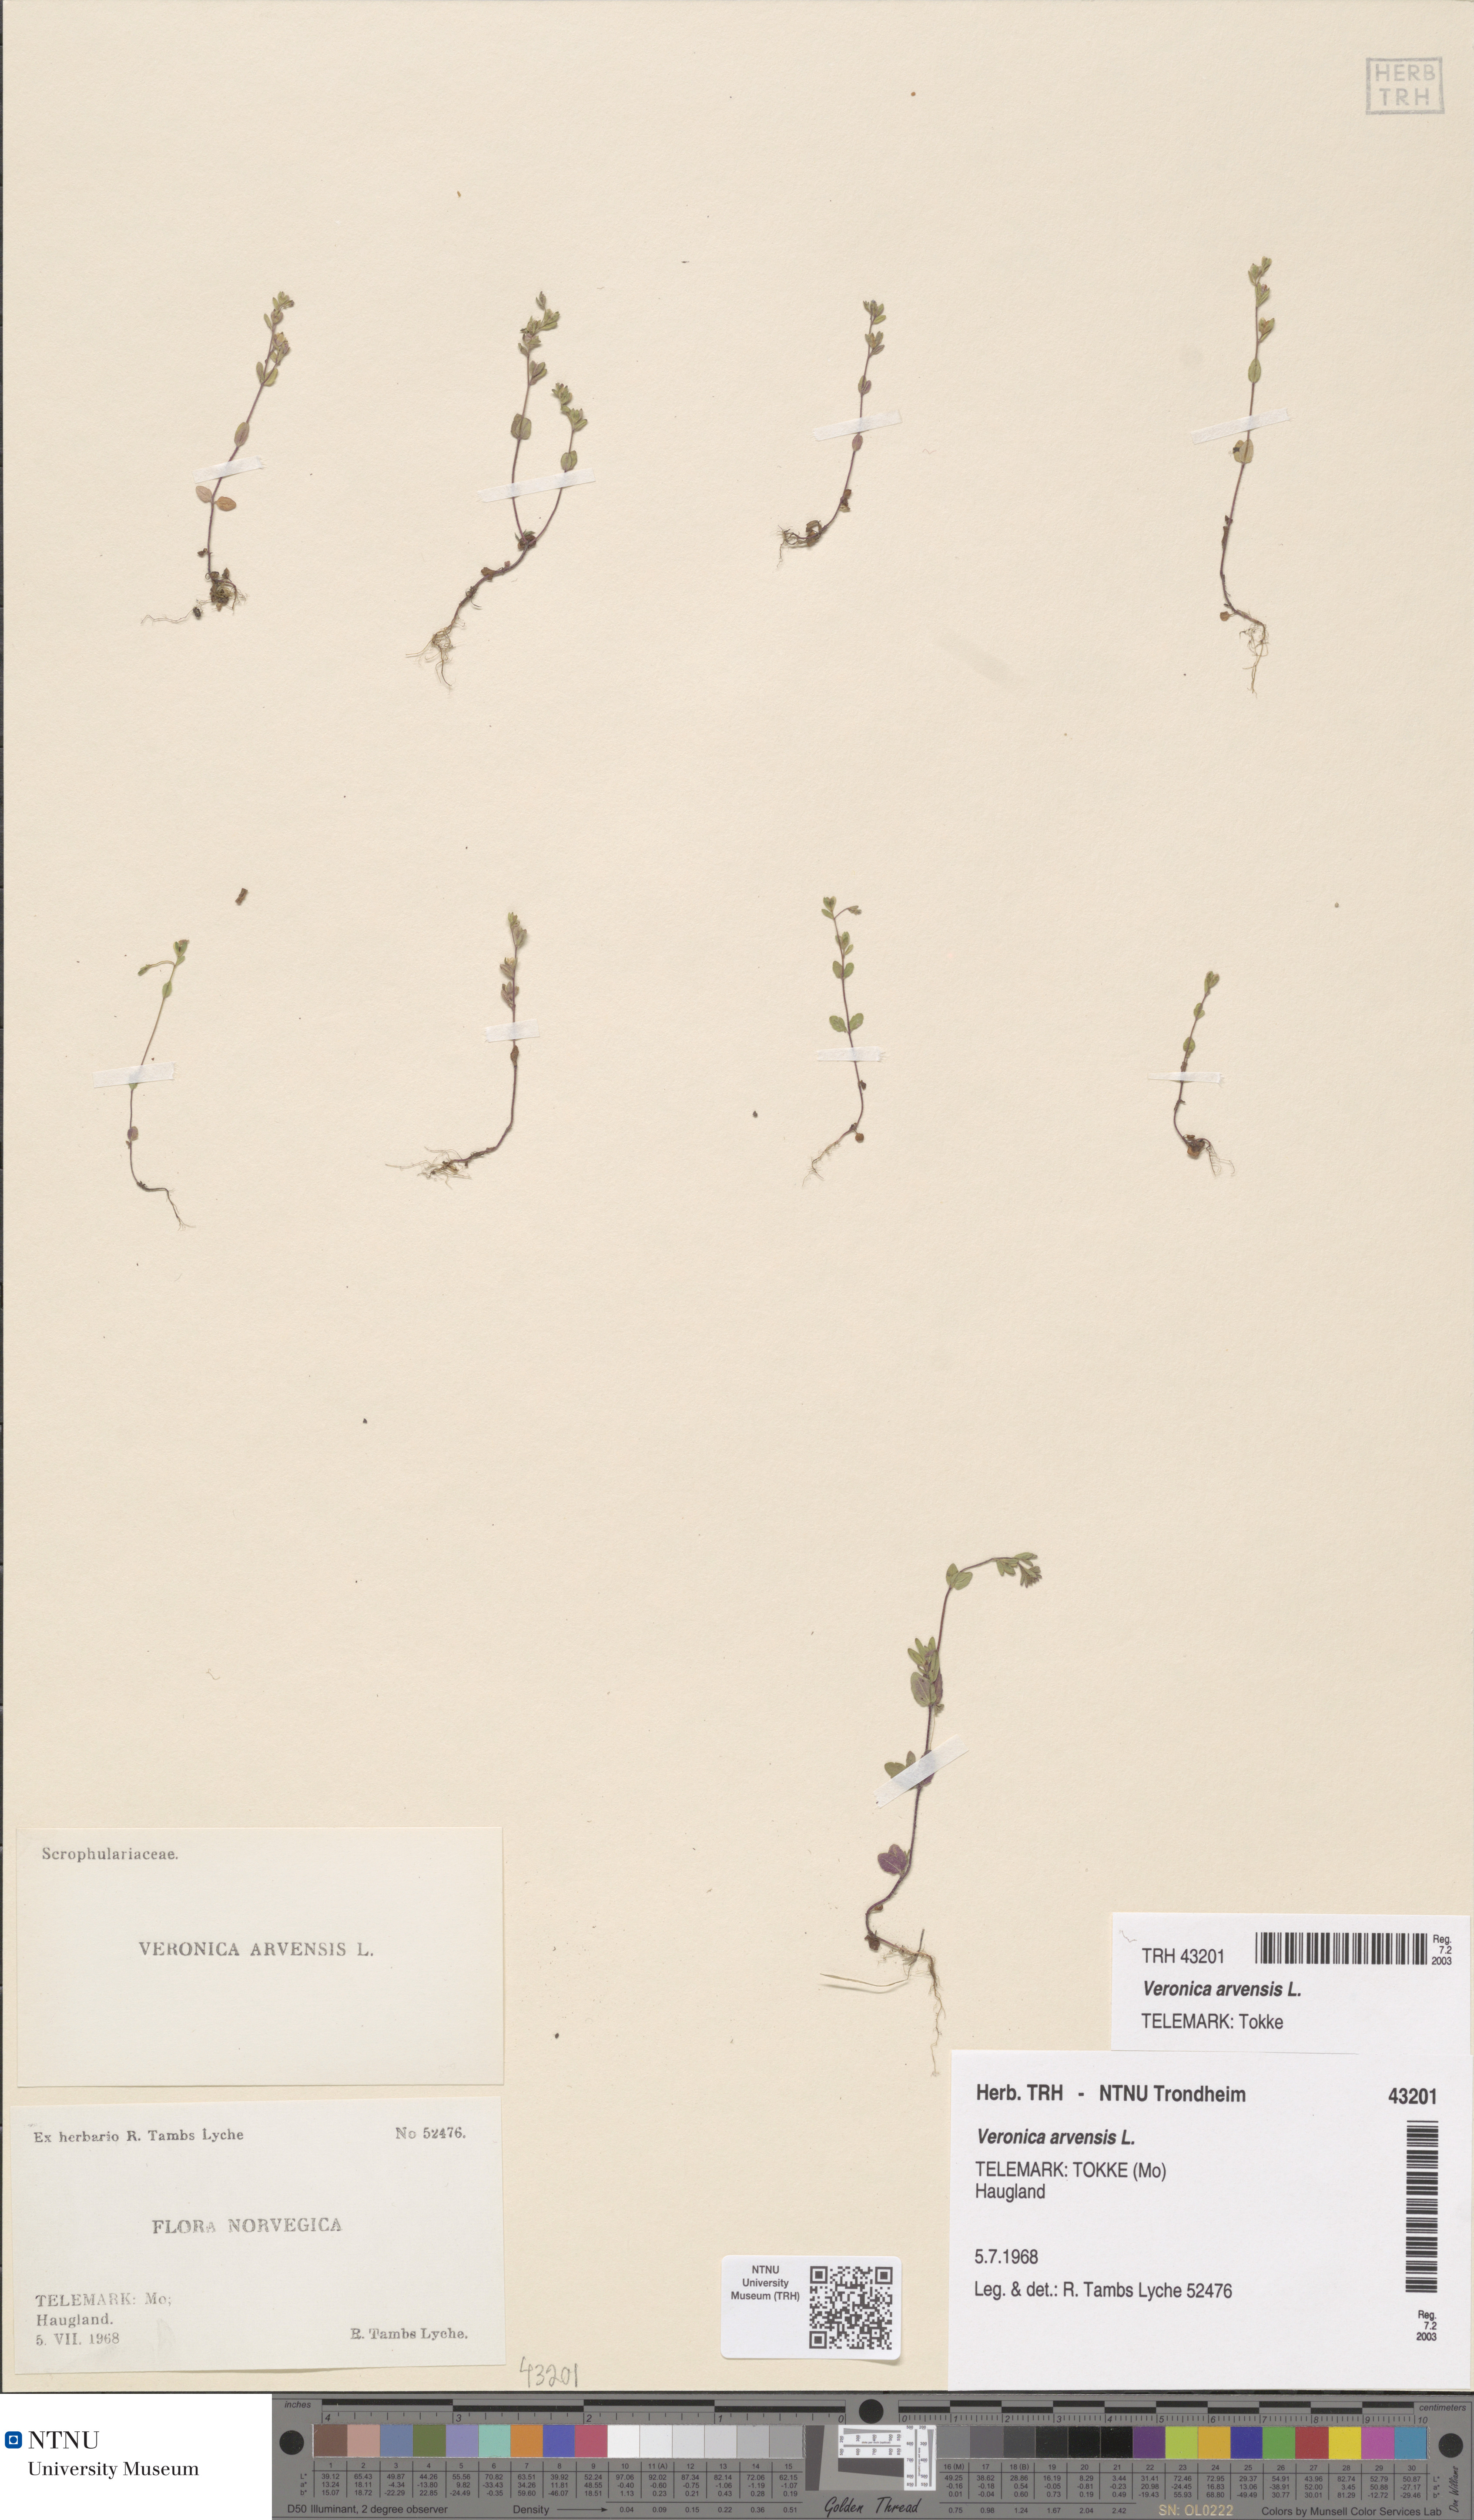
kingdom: Plantae
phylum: Tracheophyta
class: Magnoliopsida
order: Lamiales
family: Plantaginaceae
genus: Veronica
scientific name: Veronica arvensis
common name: Corn speedwell
